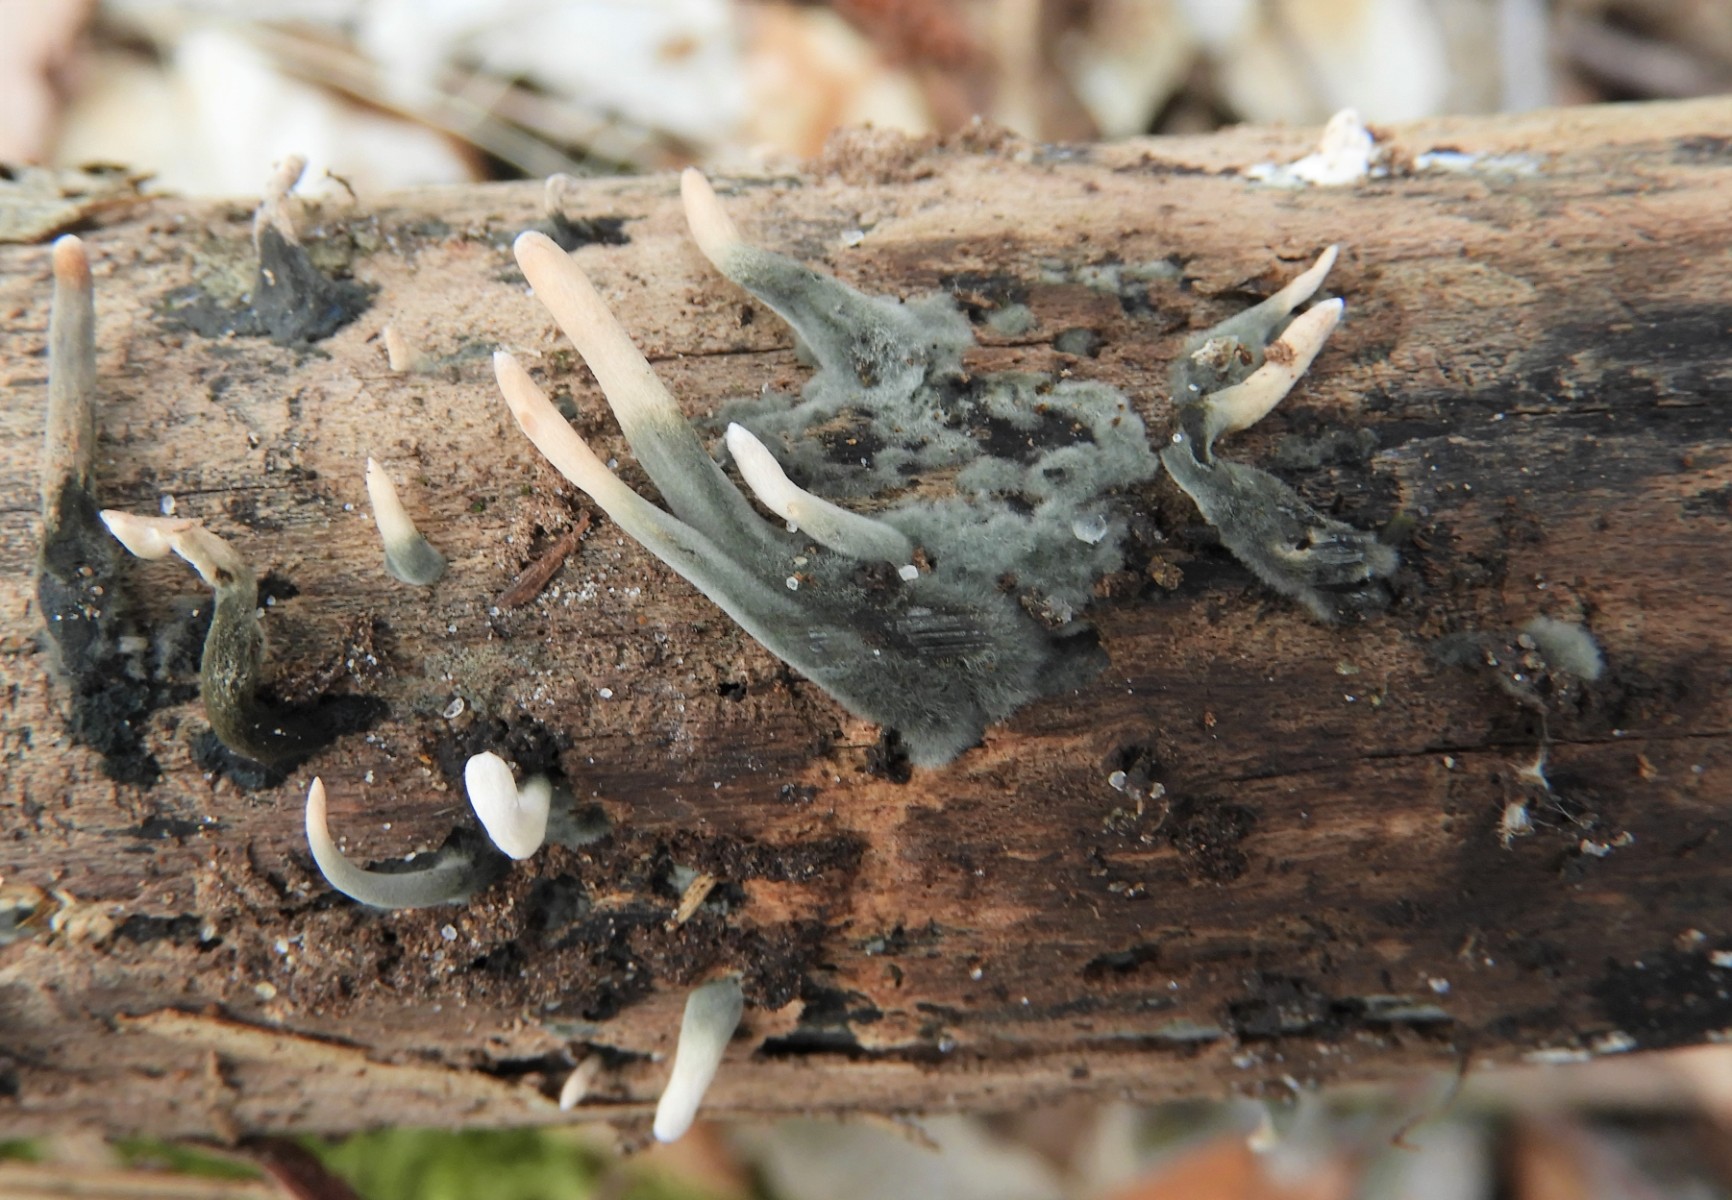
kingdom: Fungi
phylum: Ascomycota
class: Sordariomycetes
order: Xylariales
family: Xylariaceae
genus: Xylaria
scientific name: Xylaria hypoxylon
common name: grenet stødsvamp
